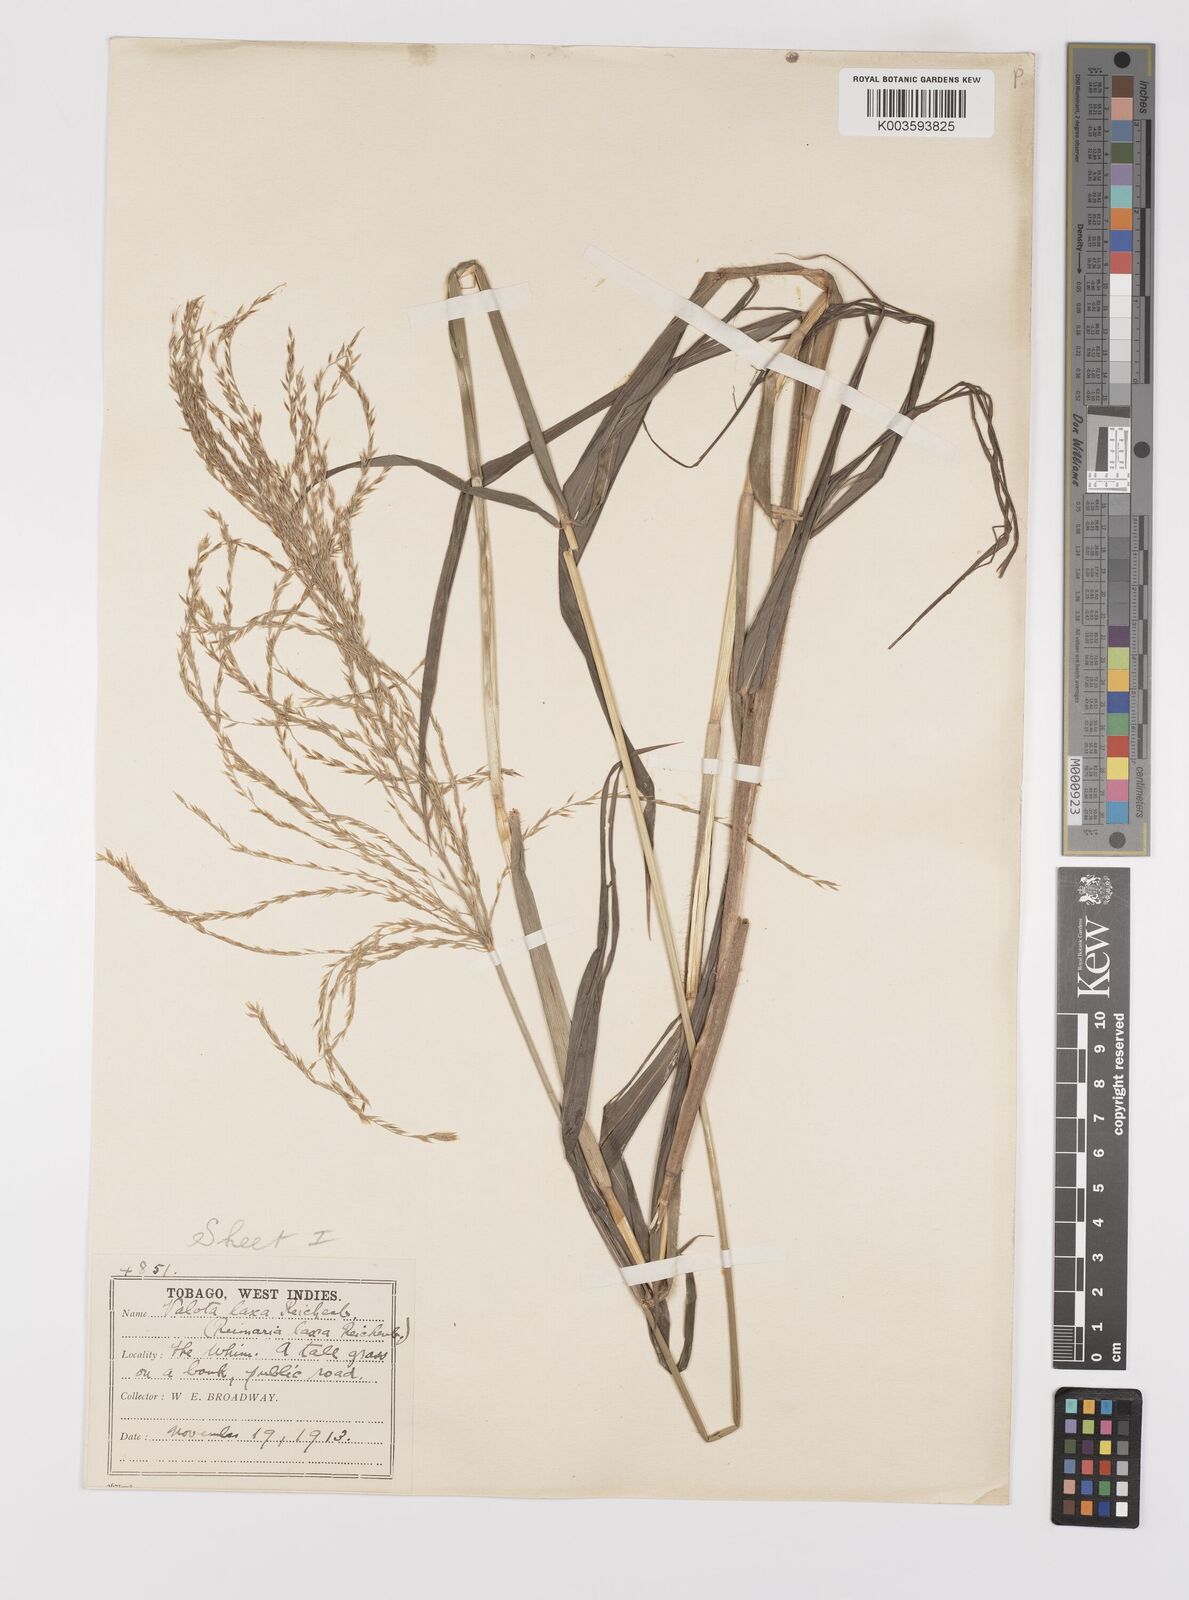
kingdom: Plantae
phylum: Tracheophyta
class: Liliopsida
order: Poales
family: Poaceae
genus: Digitaria
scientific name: Digitaria laxa
